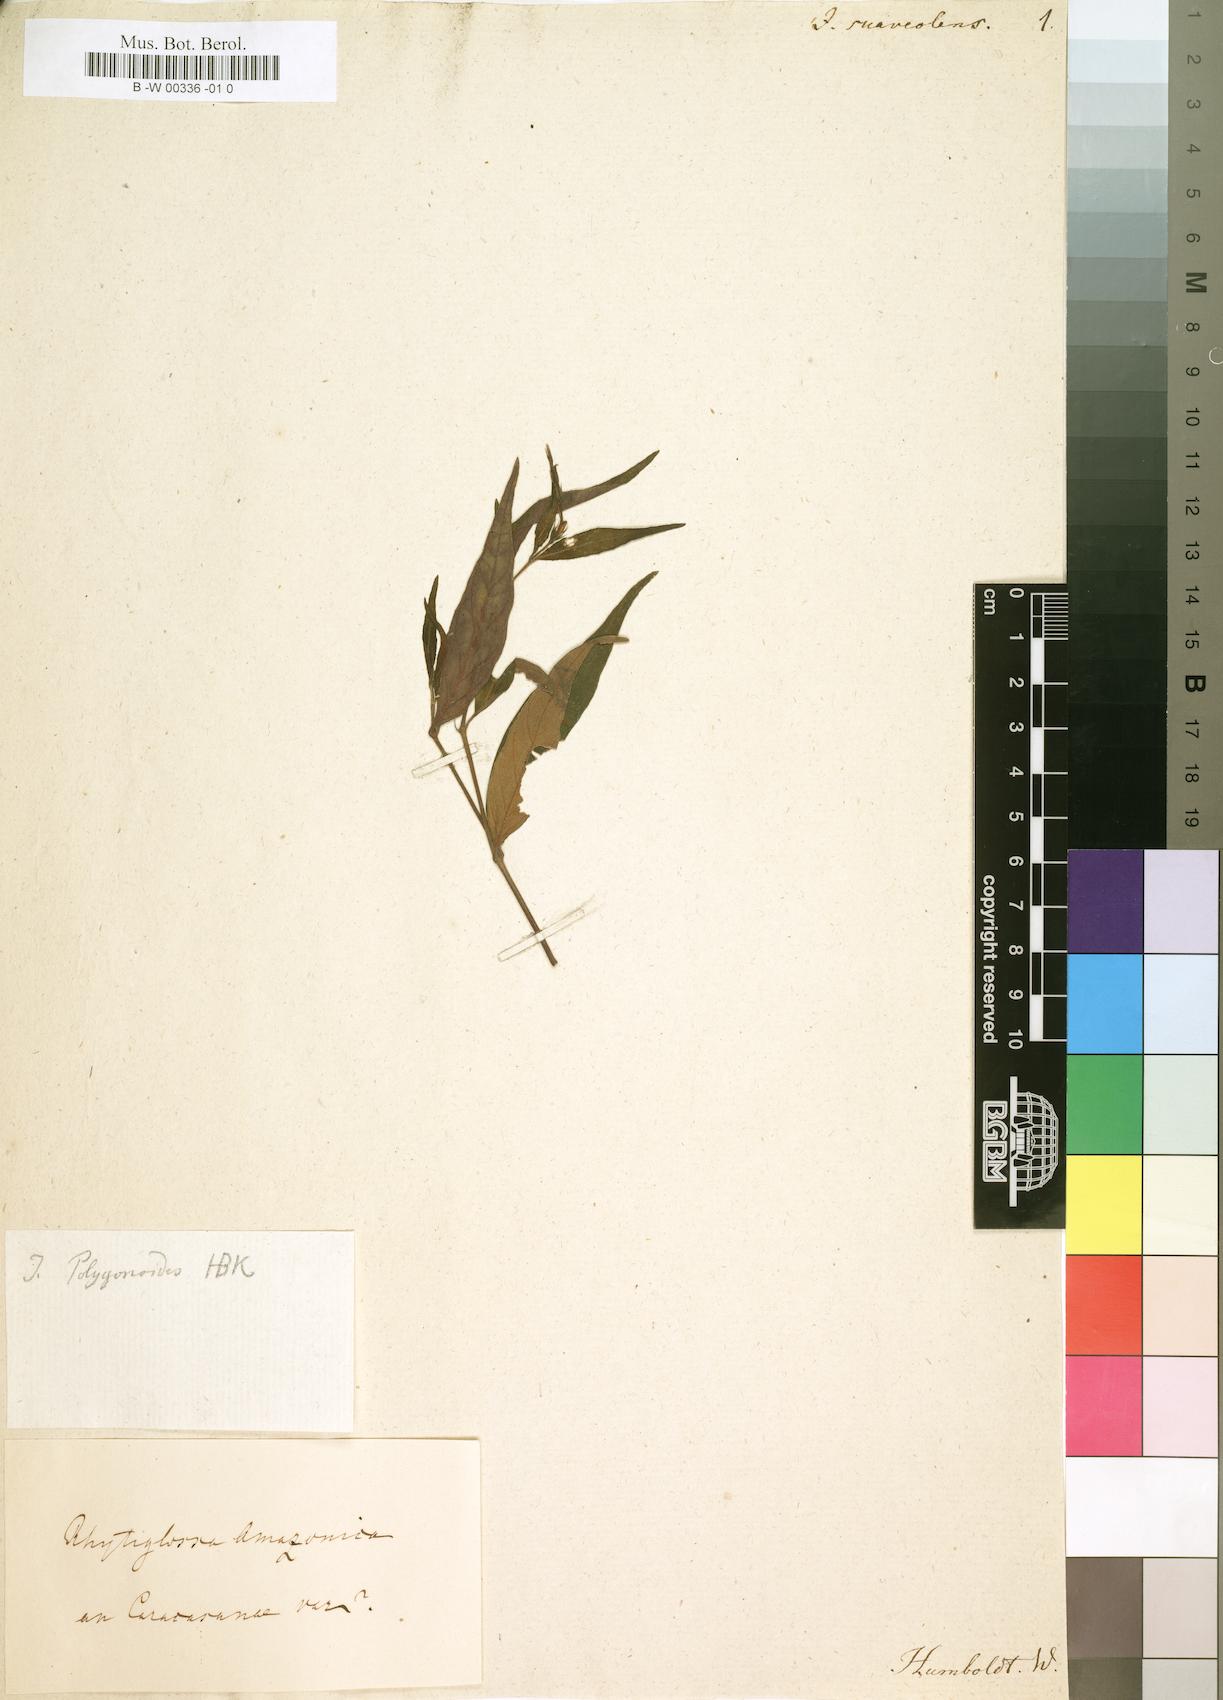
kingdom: Plantae
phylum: Tracheophyta
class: Magnoliopsida
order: Lamiales
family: Acanthaceae
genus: Justicia
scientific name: Justicia polygonoides
